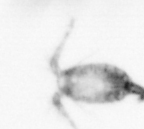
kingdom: Animalia
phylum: Arthropoda
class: Copepoda
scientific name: Copepoda
